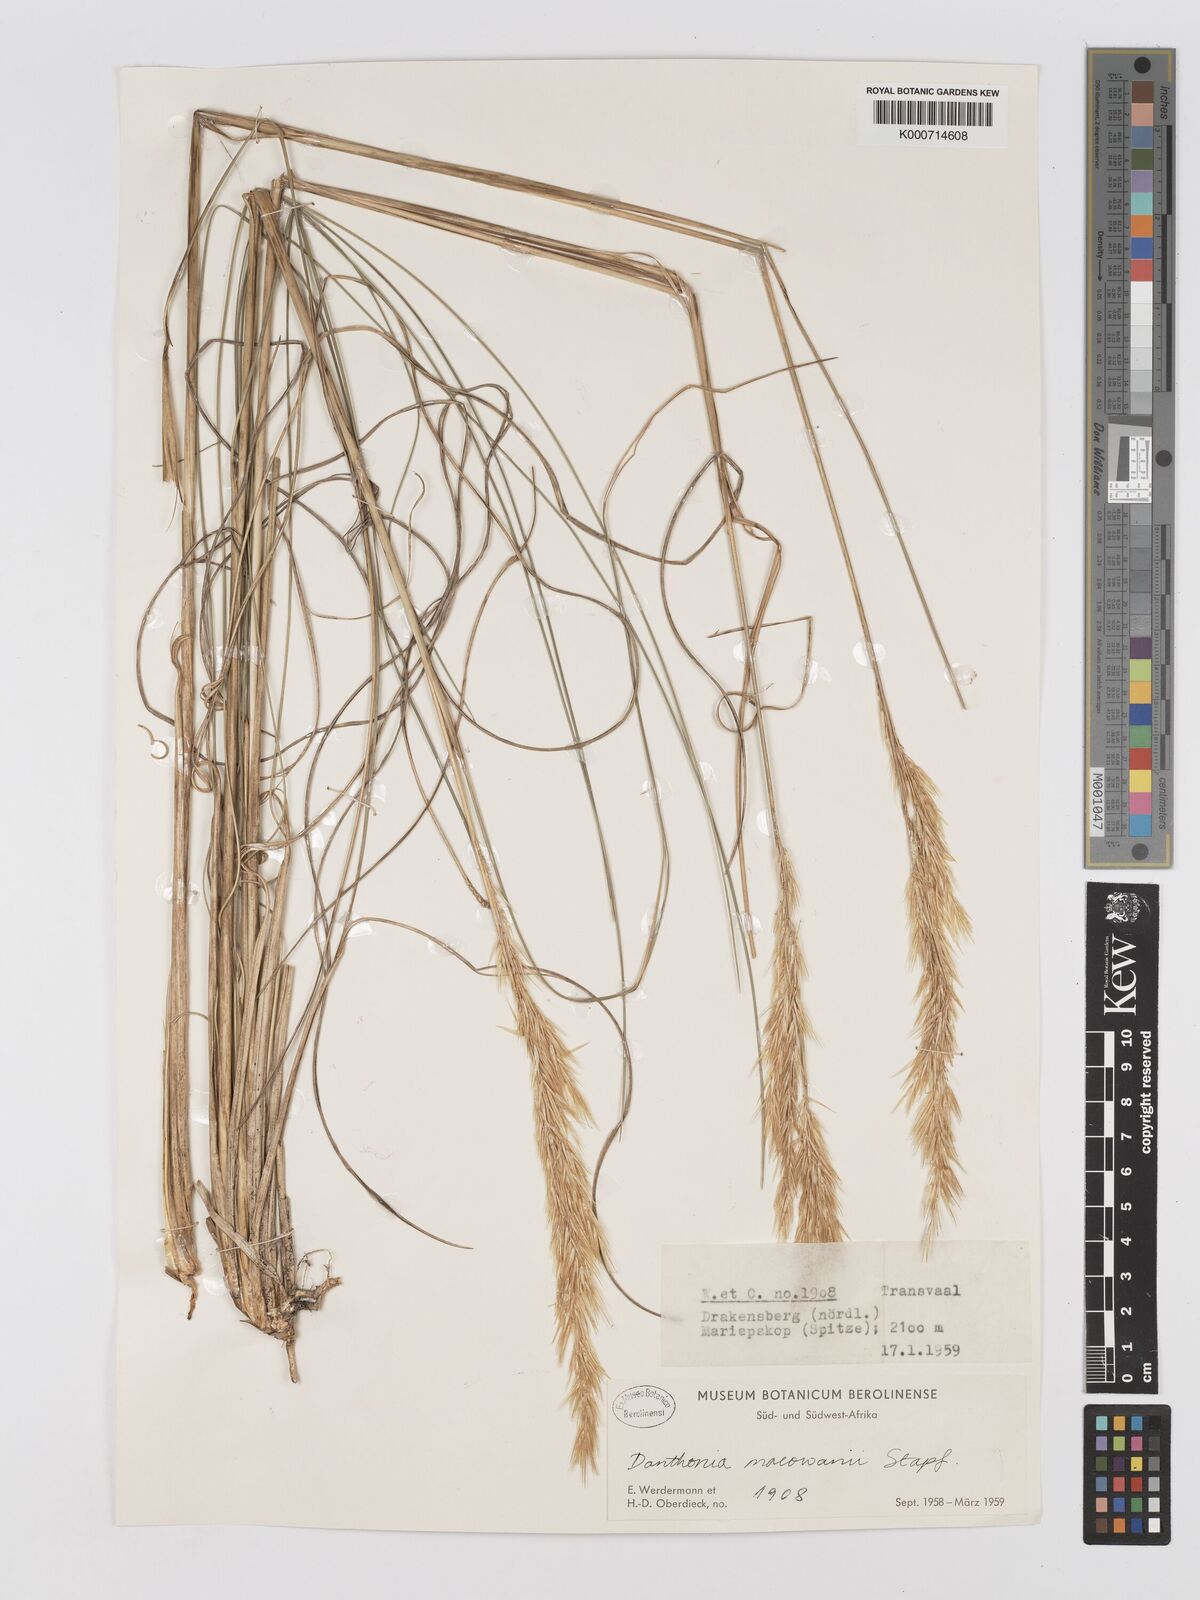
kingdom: Plantae
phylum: Tracheophyta
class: Liliopsida
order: Poales
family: Poaceae
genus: Rytidosperma
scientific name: Rytidosperma
